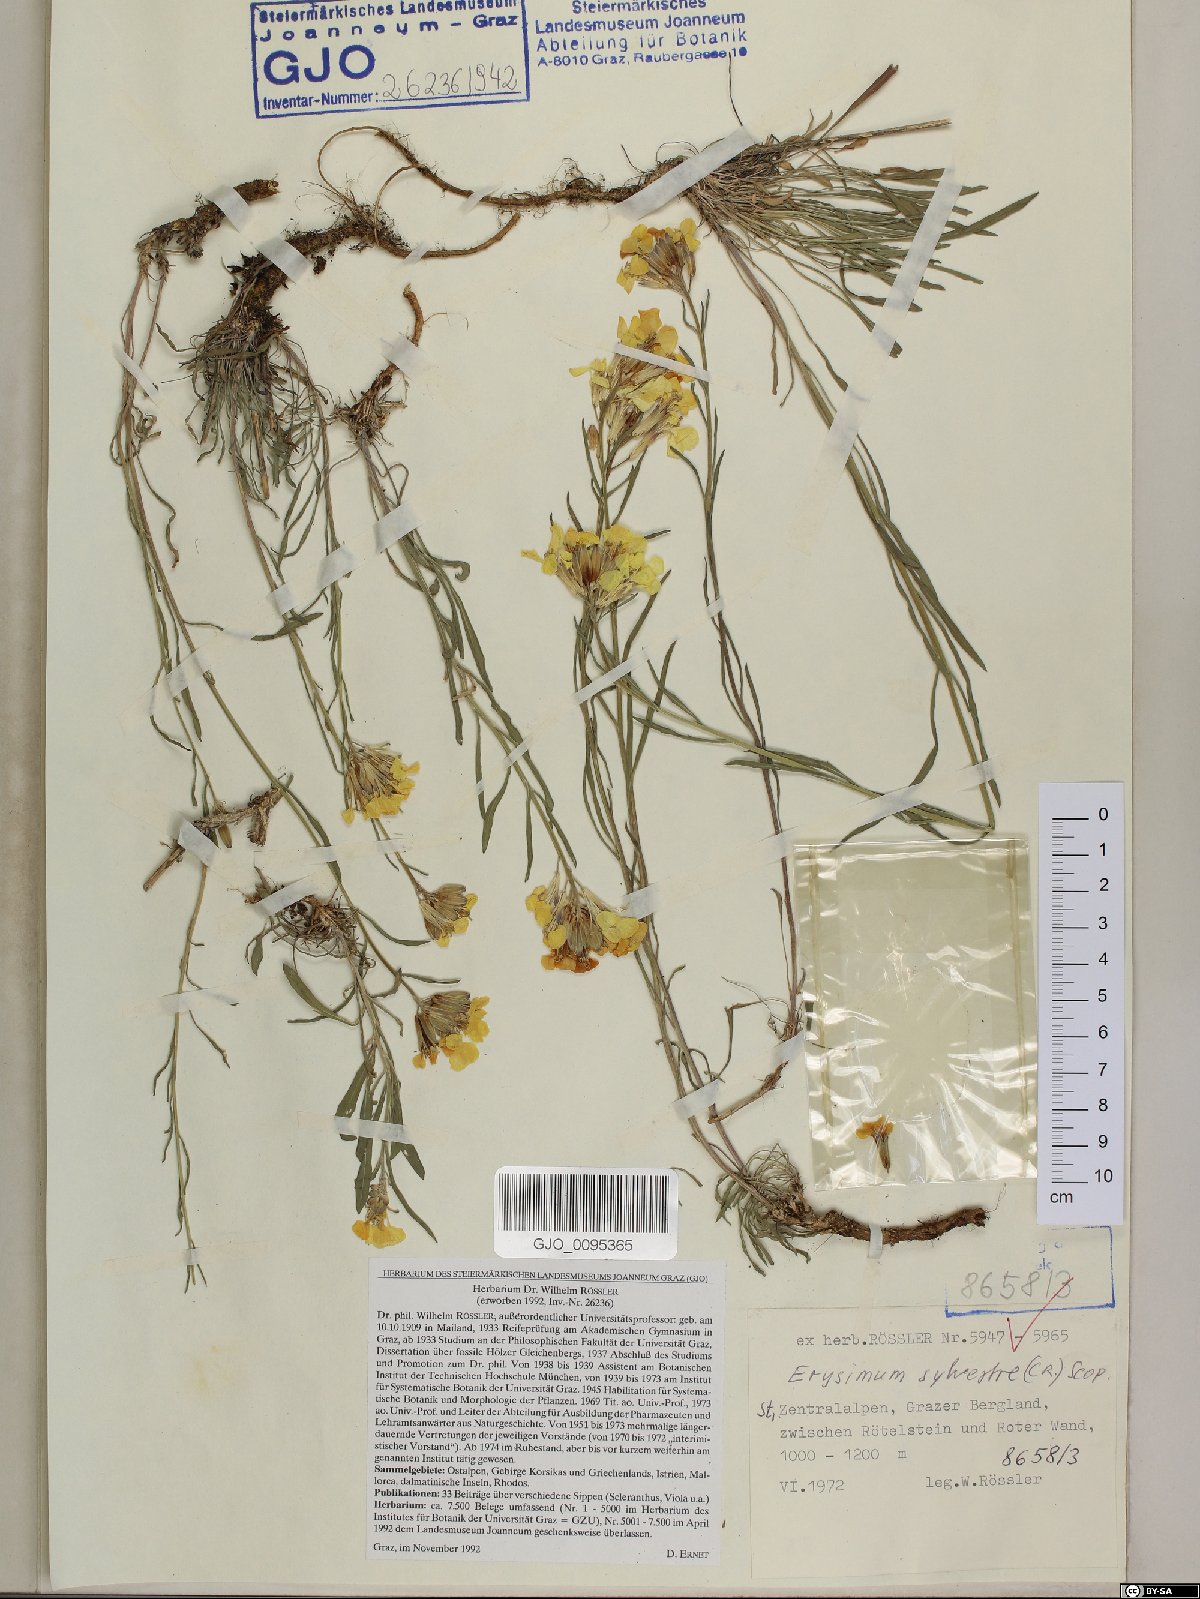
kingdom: Plantae
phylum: Tracheophyta
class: Magnoliopsida
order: Brassicales
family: Brassicaceae
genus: Erysimum
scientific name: Erysimum sylvestre
